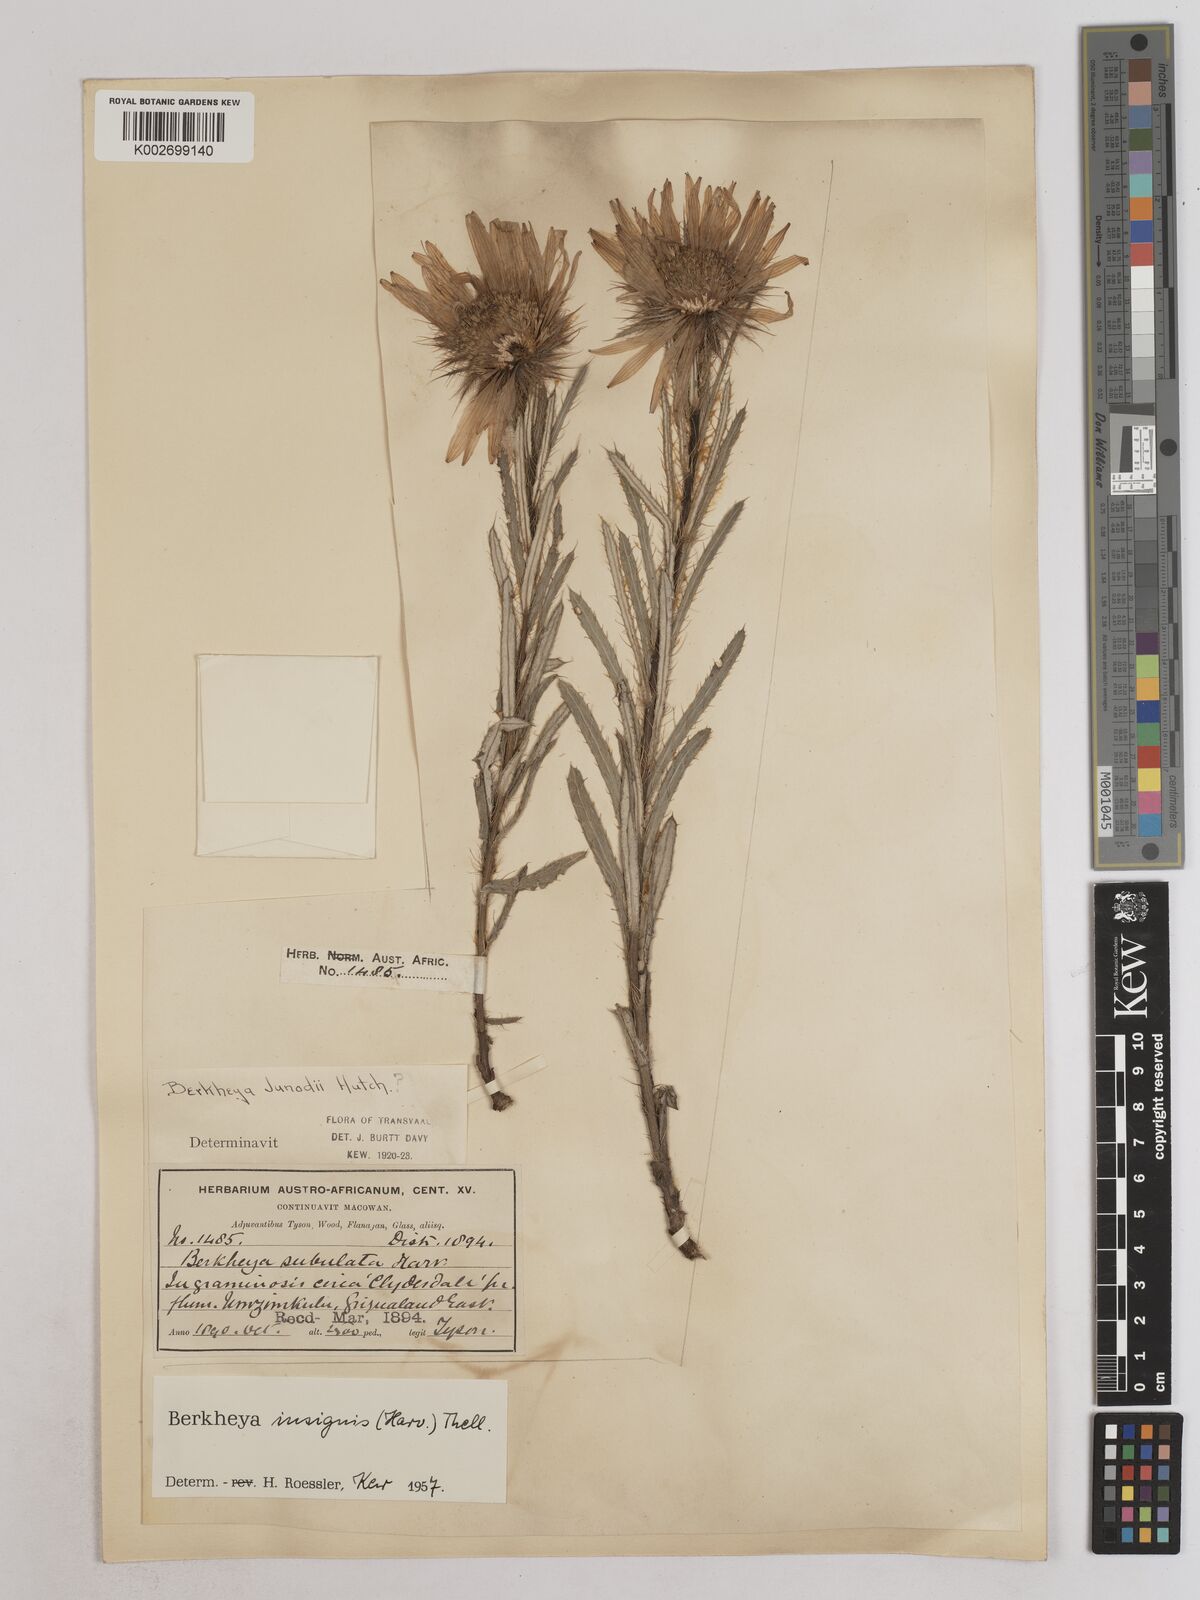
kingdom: Plantae
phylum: Tracheophyta
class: Magnoliopsida
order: Asterales
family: Asteraceae
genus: Berkheya
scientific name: Berkheya insignis
